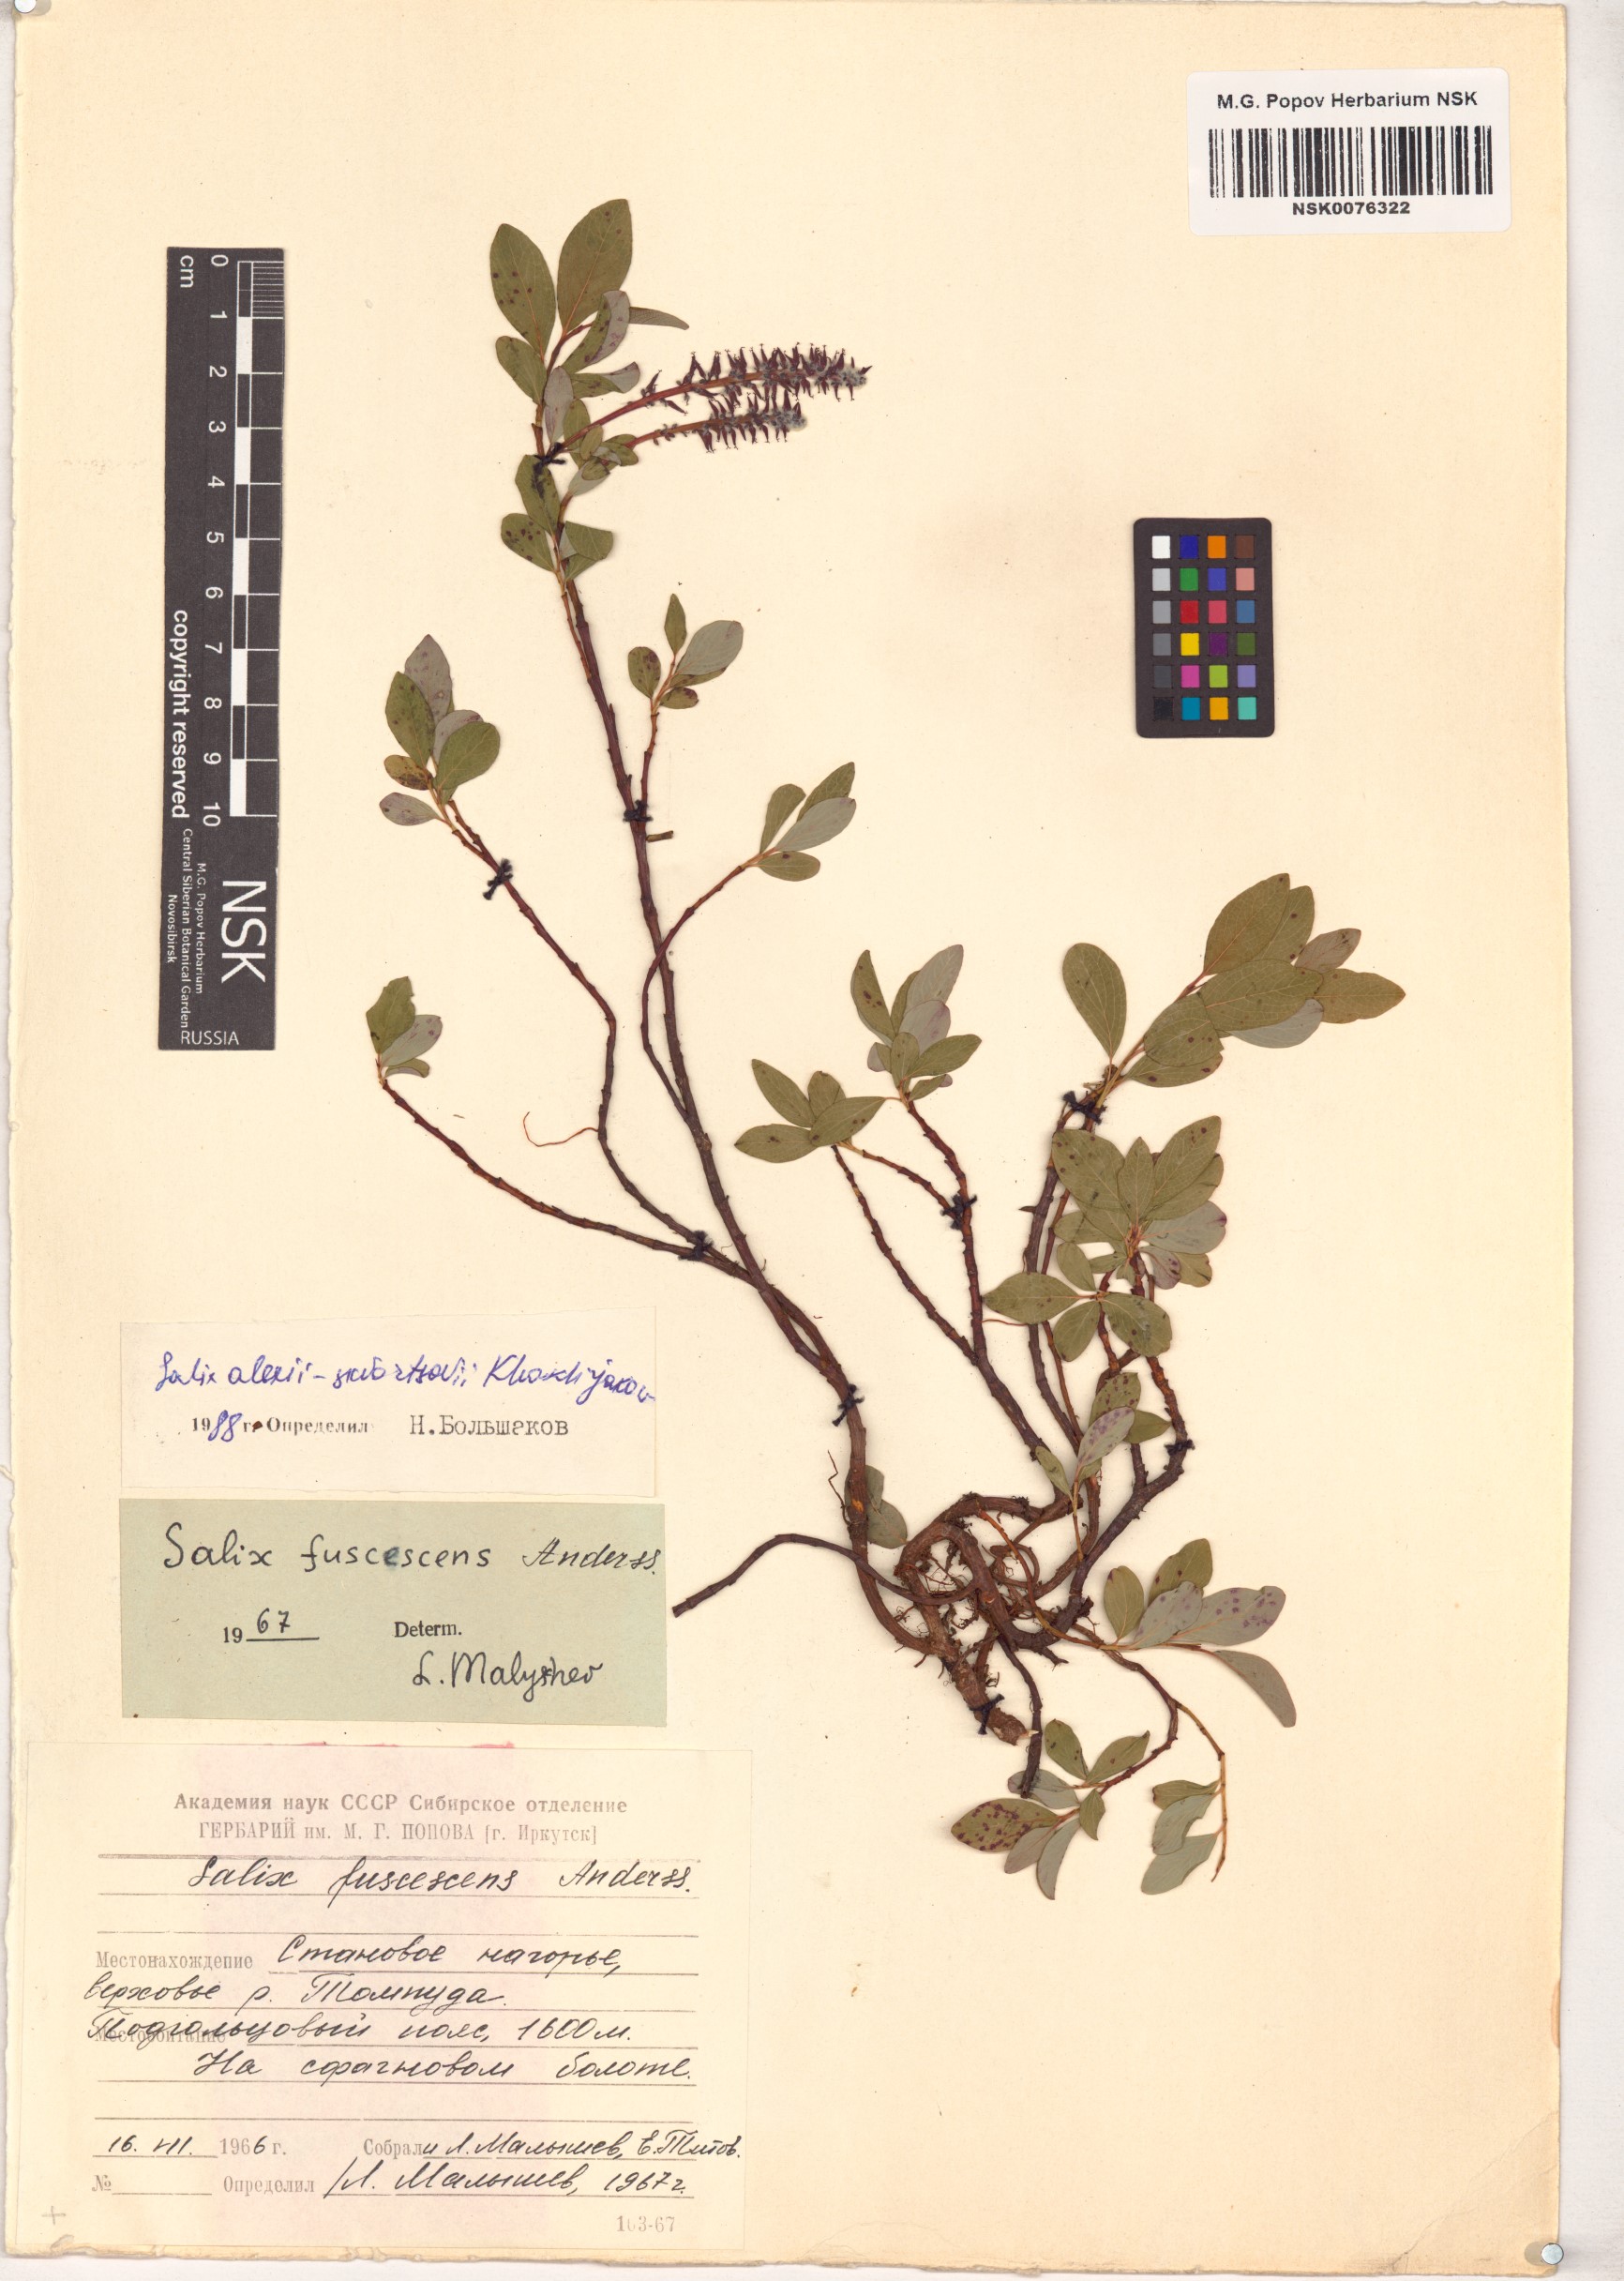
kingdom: Plantae
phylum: Tracheophyta
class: Magnoliopsida
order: Malpighiales
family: Salicaceae
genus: Salix
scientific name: Salix alexii-skvortzovii
